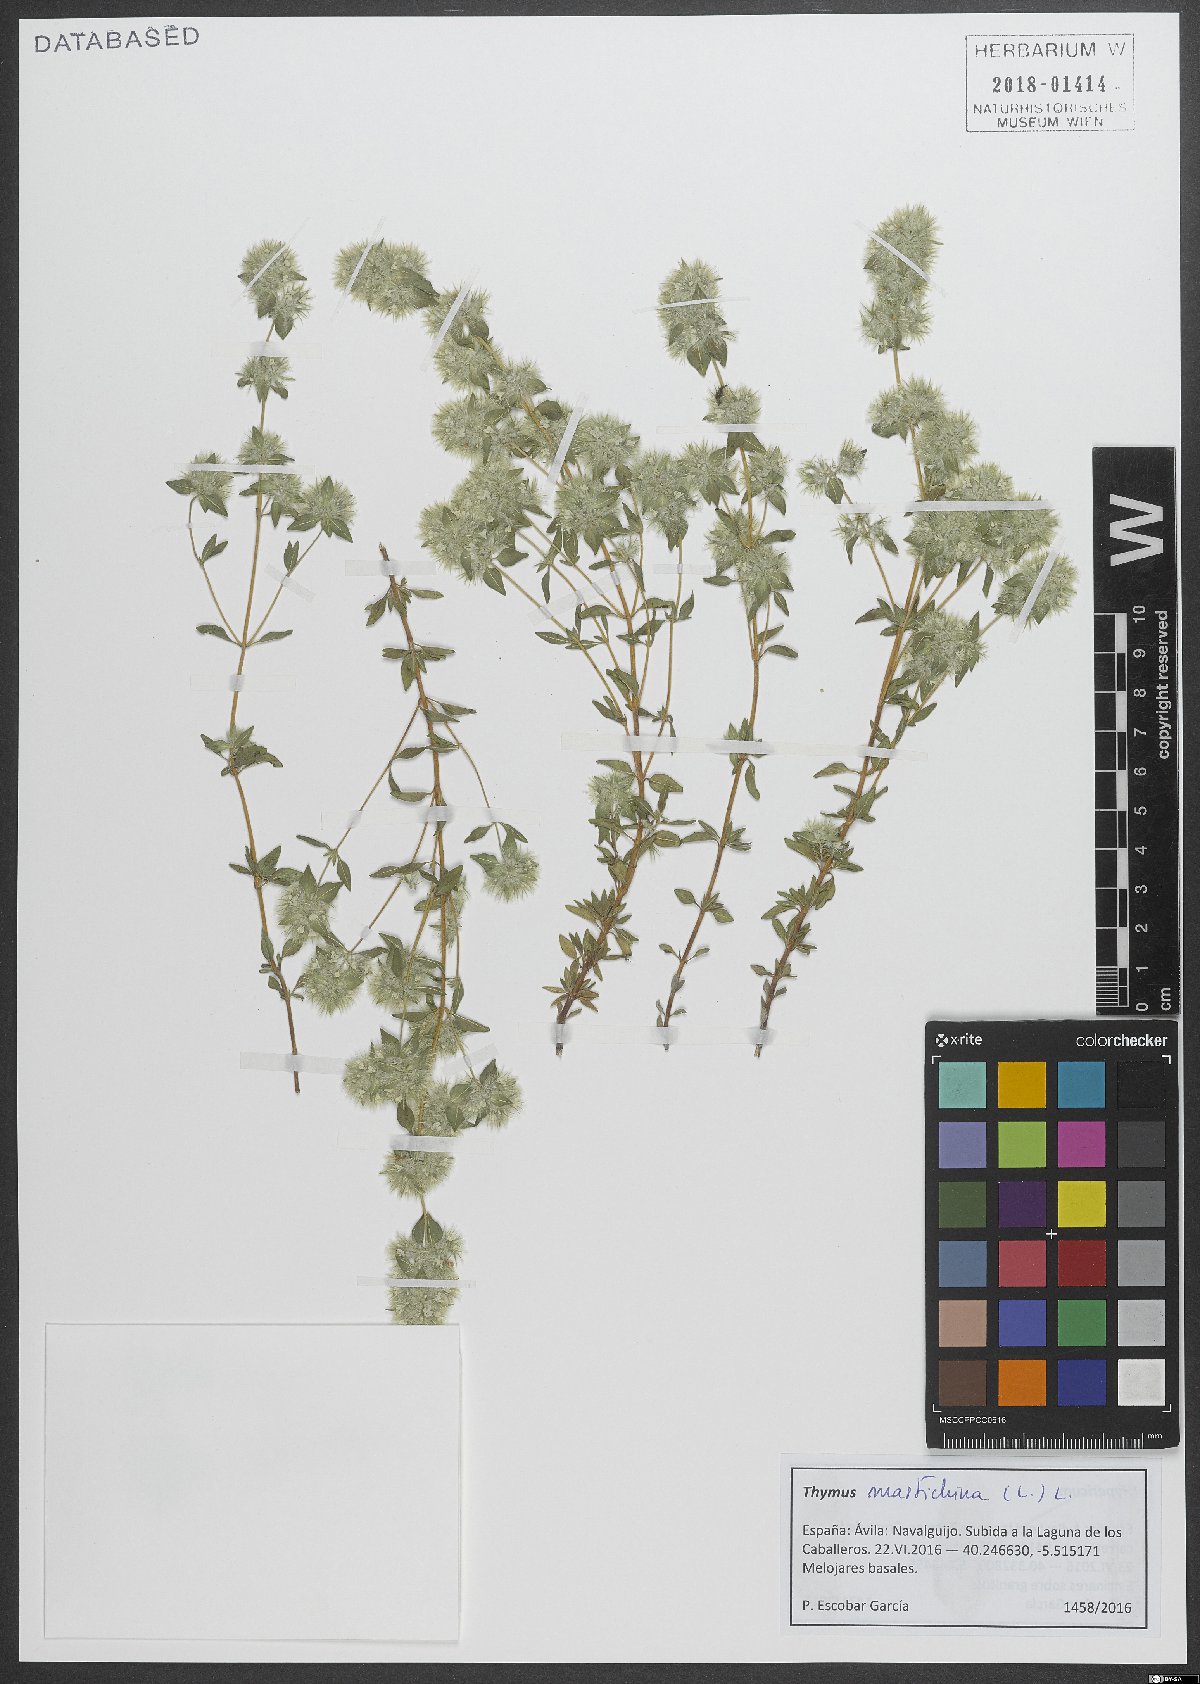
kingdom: Plantae
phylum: Tracheophyta
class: Magnoliopsida
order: Lamiales
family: Lamiaceae
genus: Thymus
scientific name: Thymus mastichina
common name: Mastic thyme
